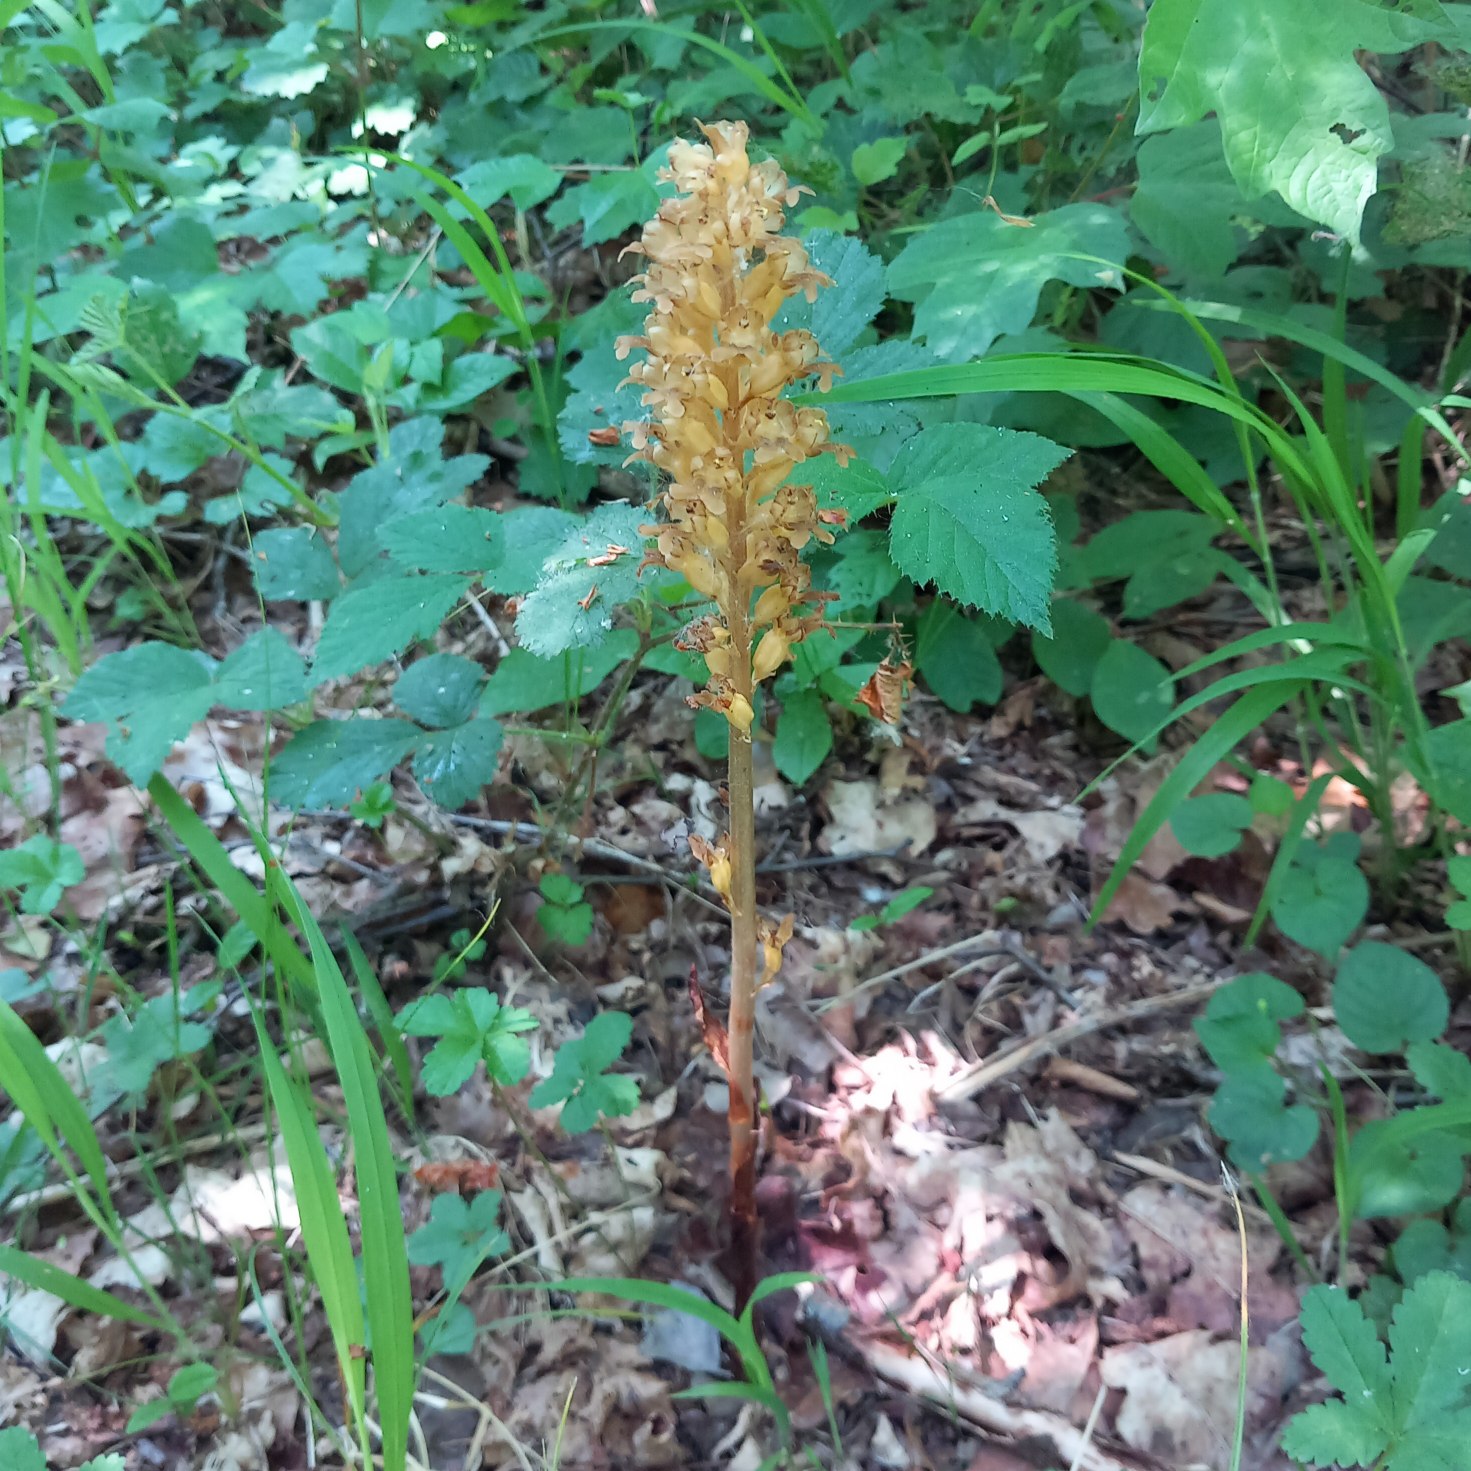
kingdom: Plantae
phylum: Tracheophyta
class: Liliopsida
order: Asparagales
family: Orchidaceae
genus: Neottia
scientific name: Neottia nidus-avis
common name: Rederod
